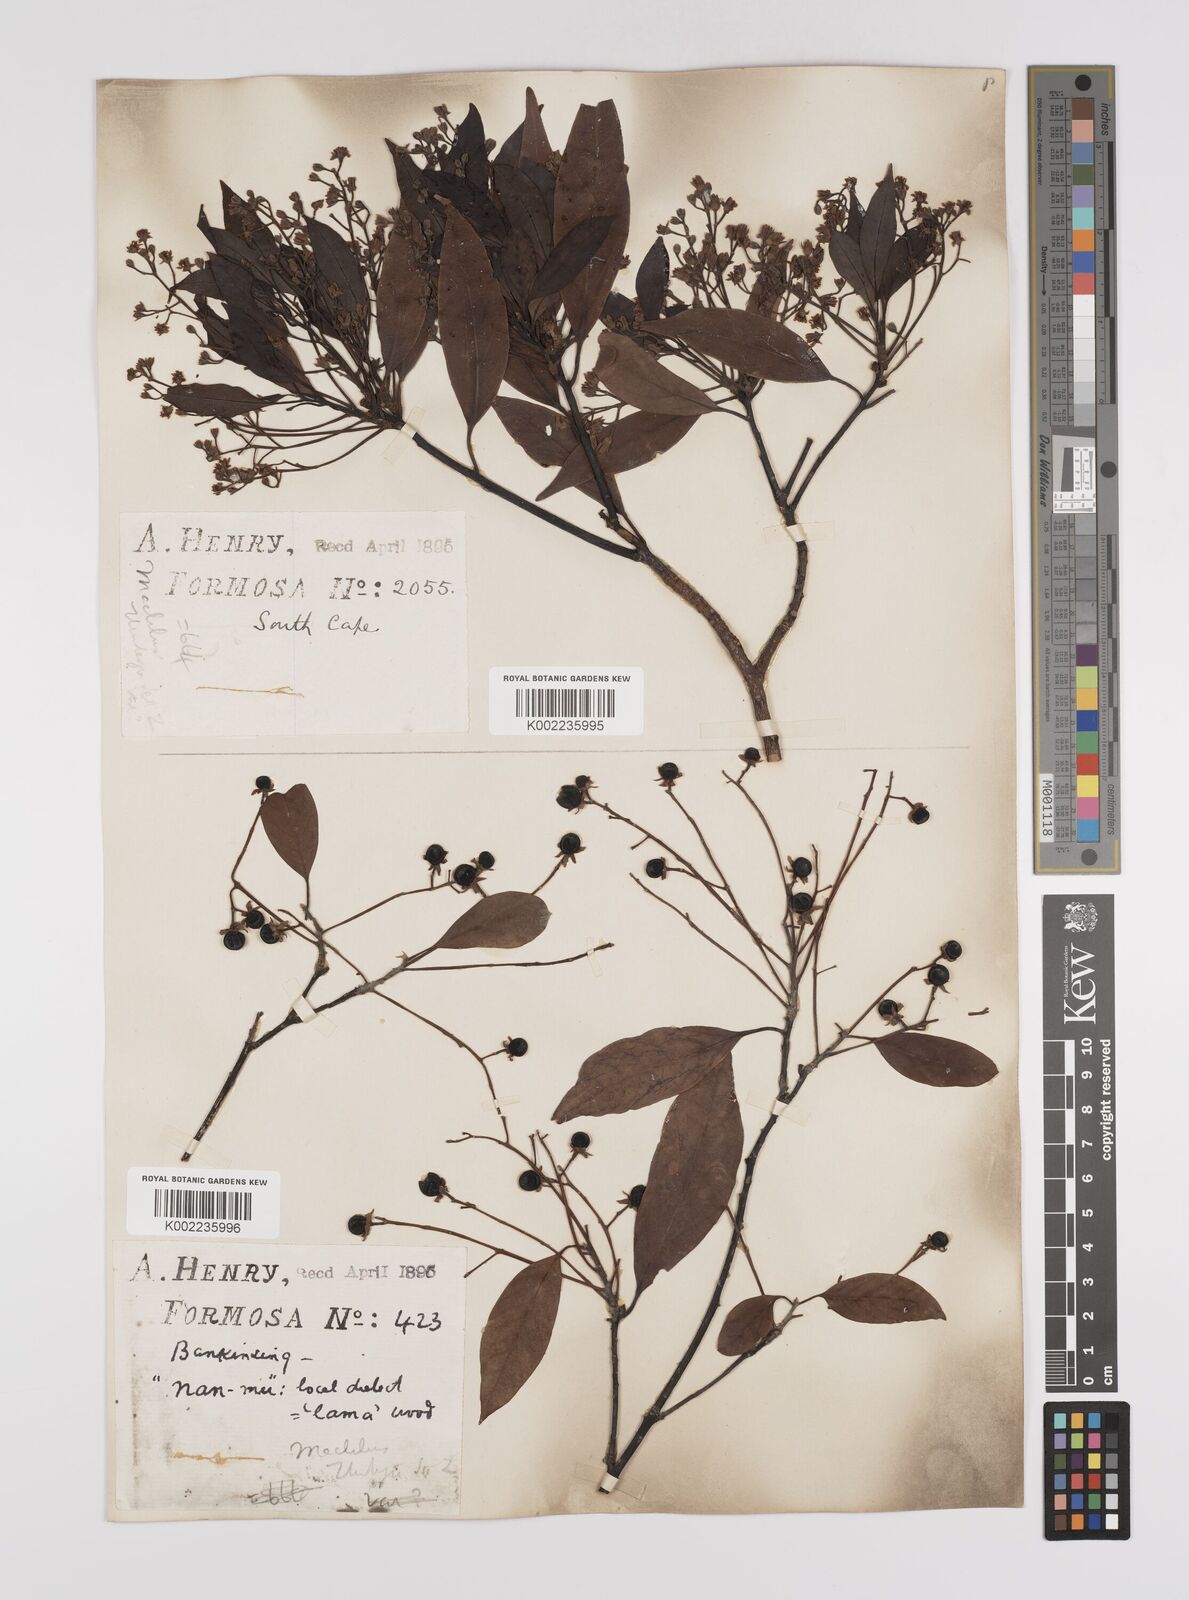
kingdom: Plantae
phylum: Tracheophyta
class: Magnoliopsida
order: Laurales
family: Lauraceae
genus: Persea
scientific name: Persea
